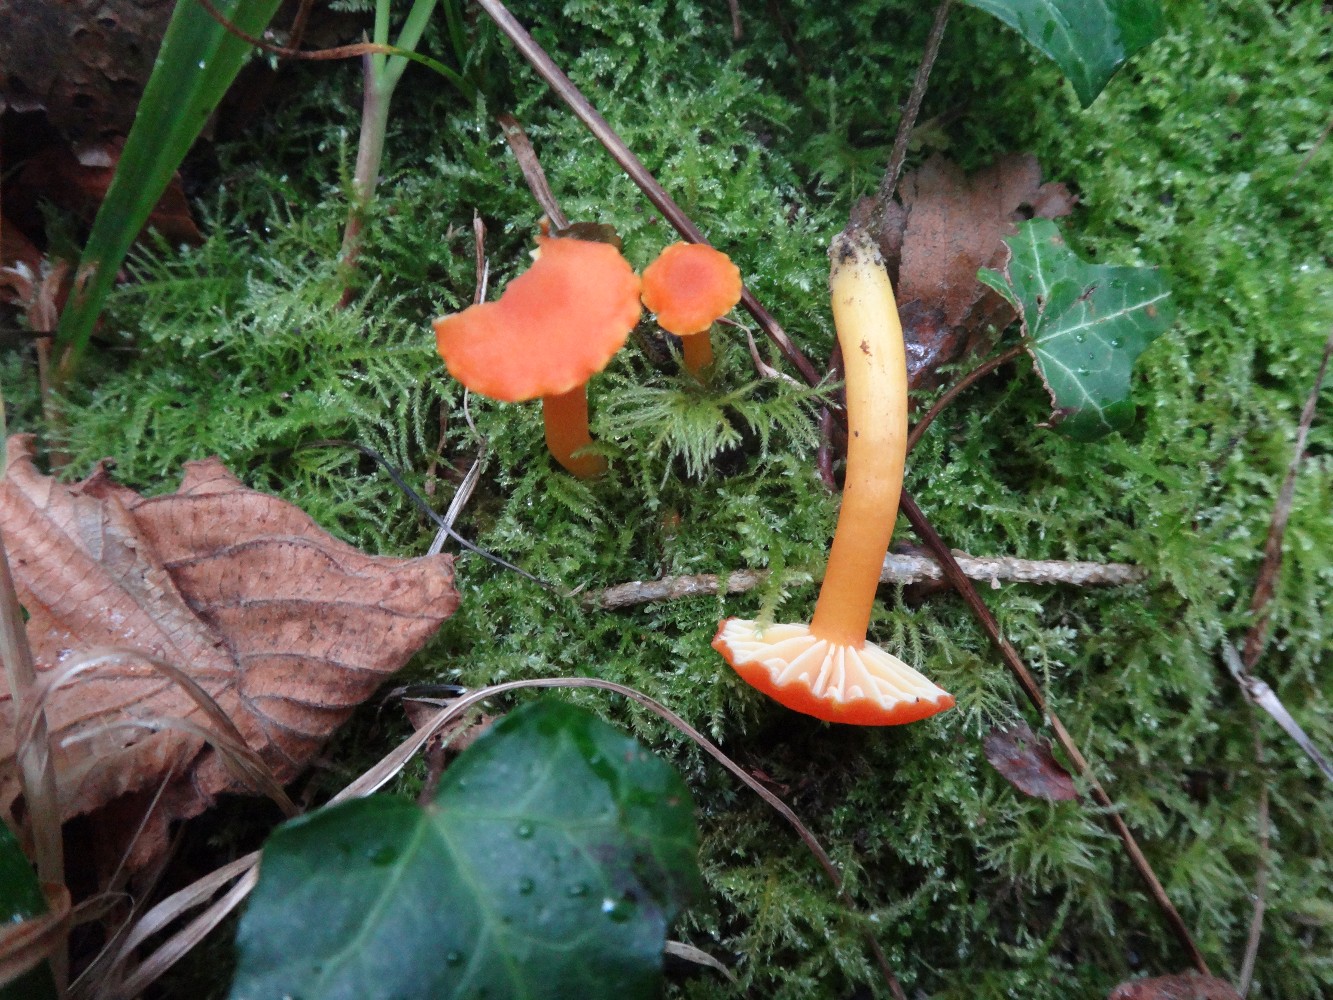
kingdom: Fungi
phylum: Basidiomycota
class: Agaricomycetes
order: Agaricales
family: Hygrophoraceae
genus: Hygrocybe
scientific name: Hygrocybe reidii
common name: honning-vokshat
